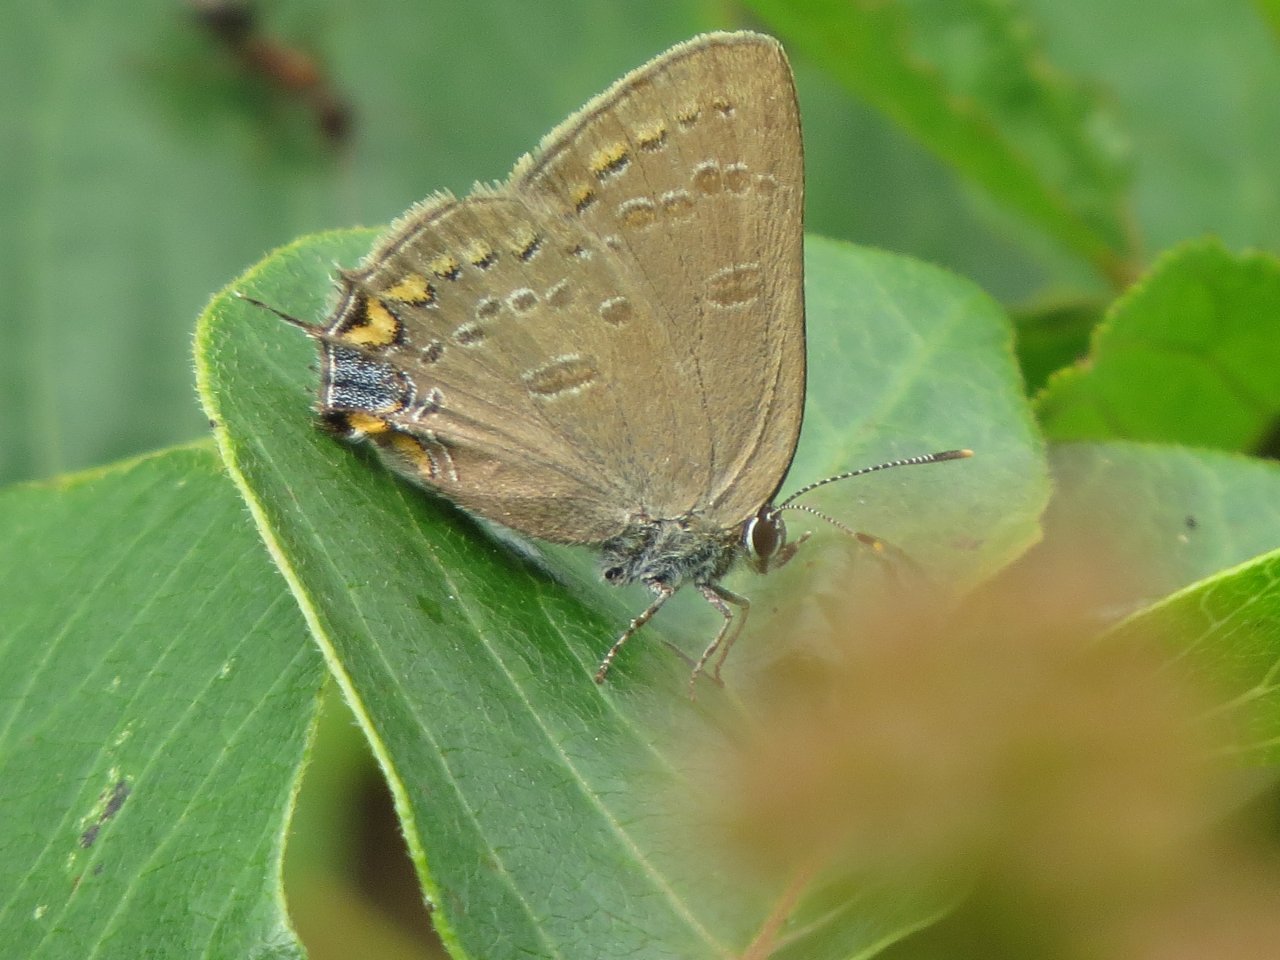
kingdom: Animalia
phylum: Arthropoda
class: Insecta
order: Lepidoptera
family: Lycaenidae
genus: Satyrium
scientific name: Satyrium edwardsii
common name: Edwards' Hairstreak
